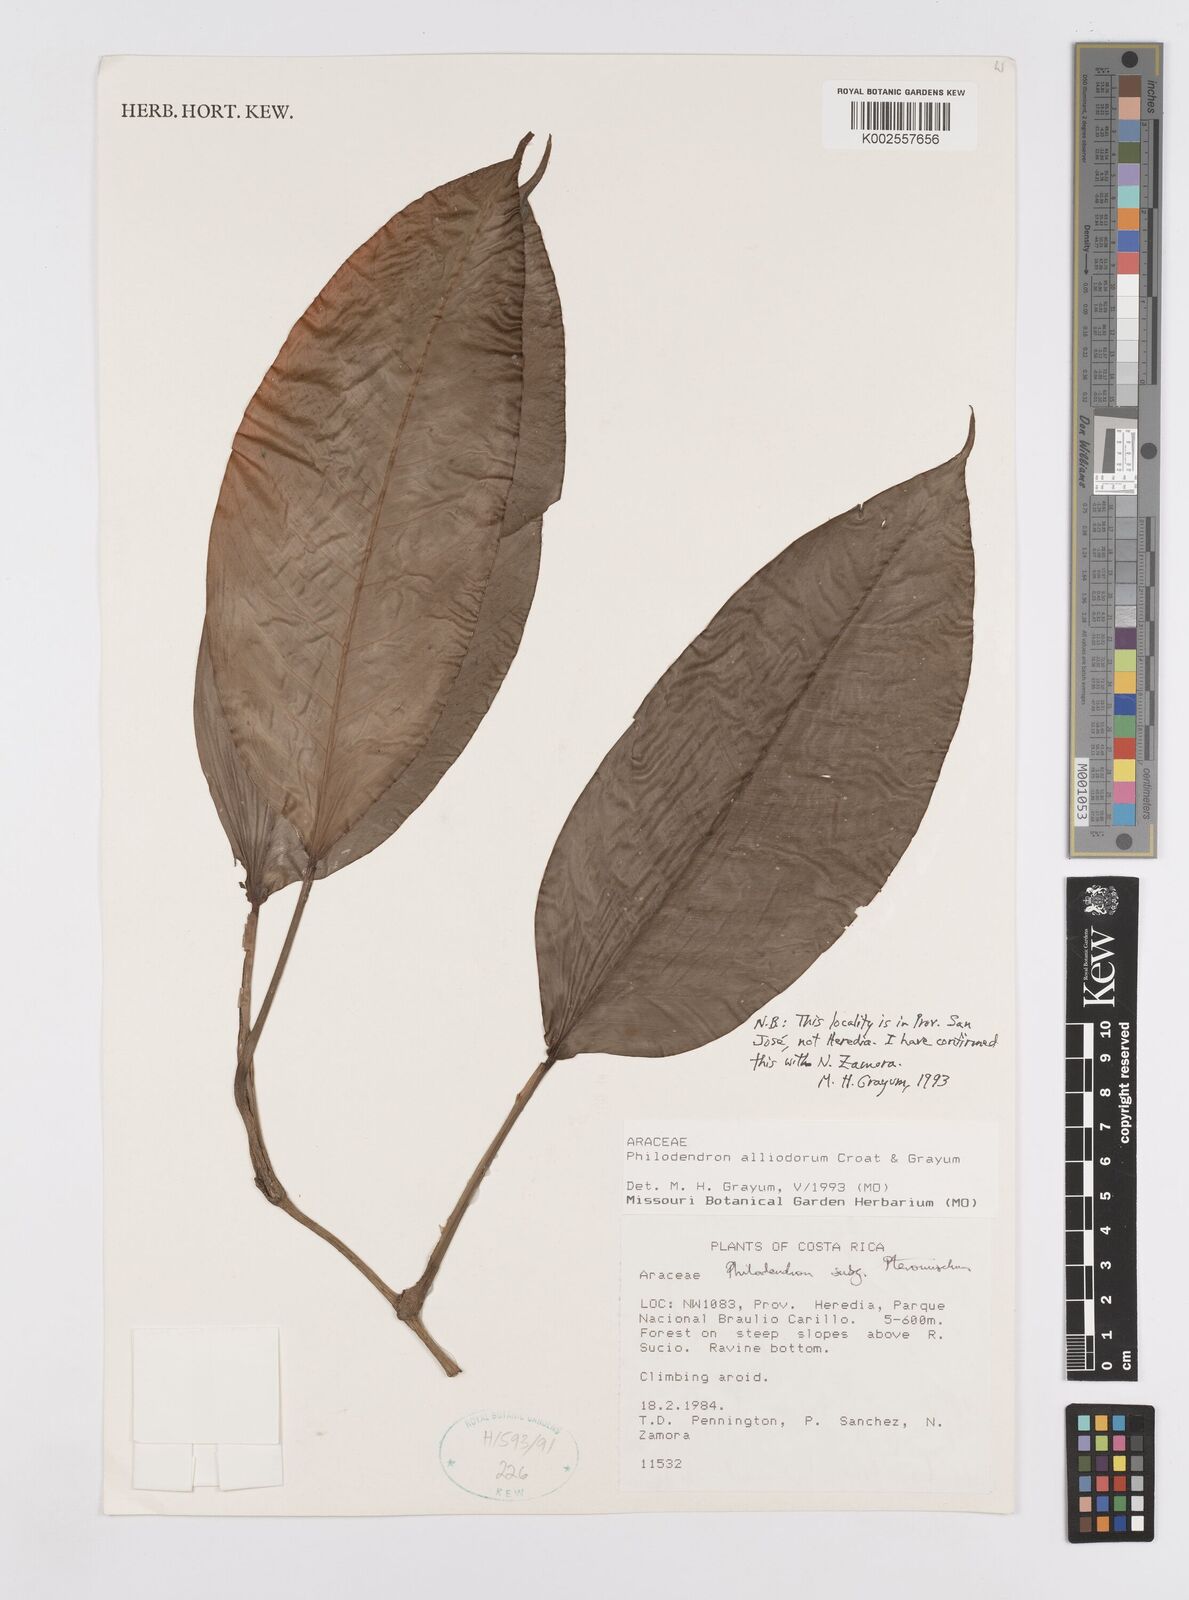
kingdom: Plantae
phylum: Tracheophyta
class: Liliopsida
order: Alismatales
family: Araceae
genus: Philodendron
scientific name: Philodendron alliodorum
